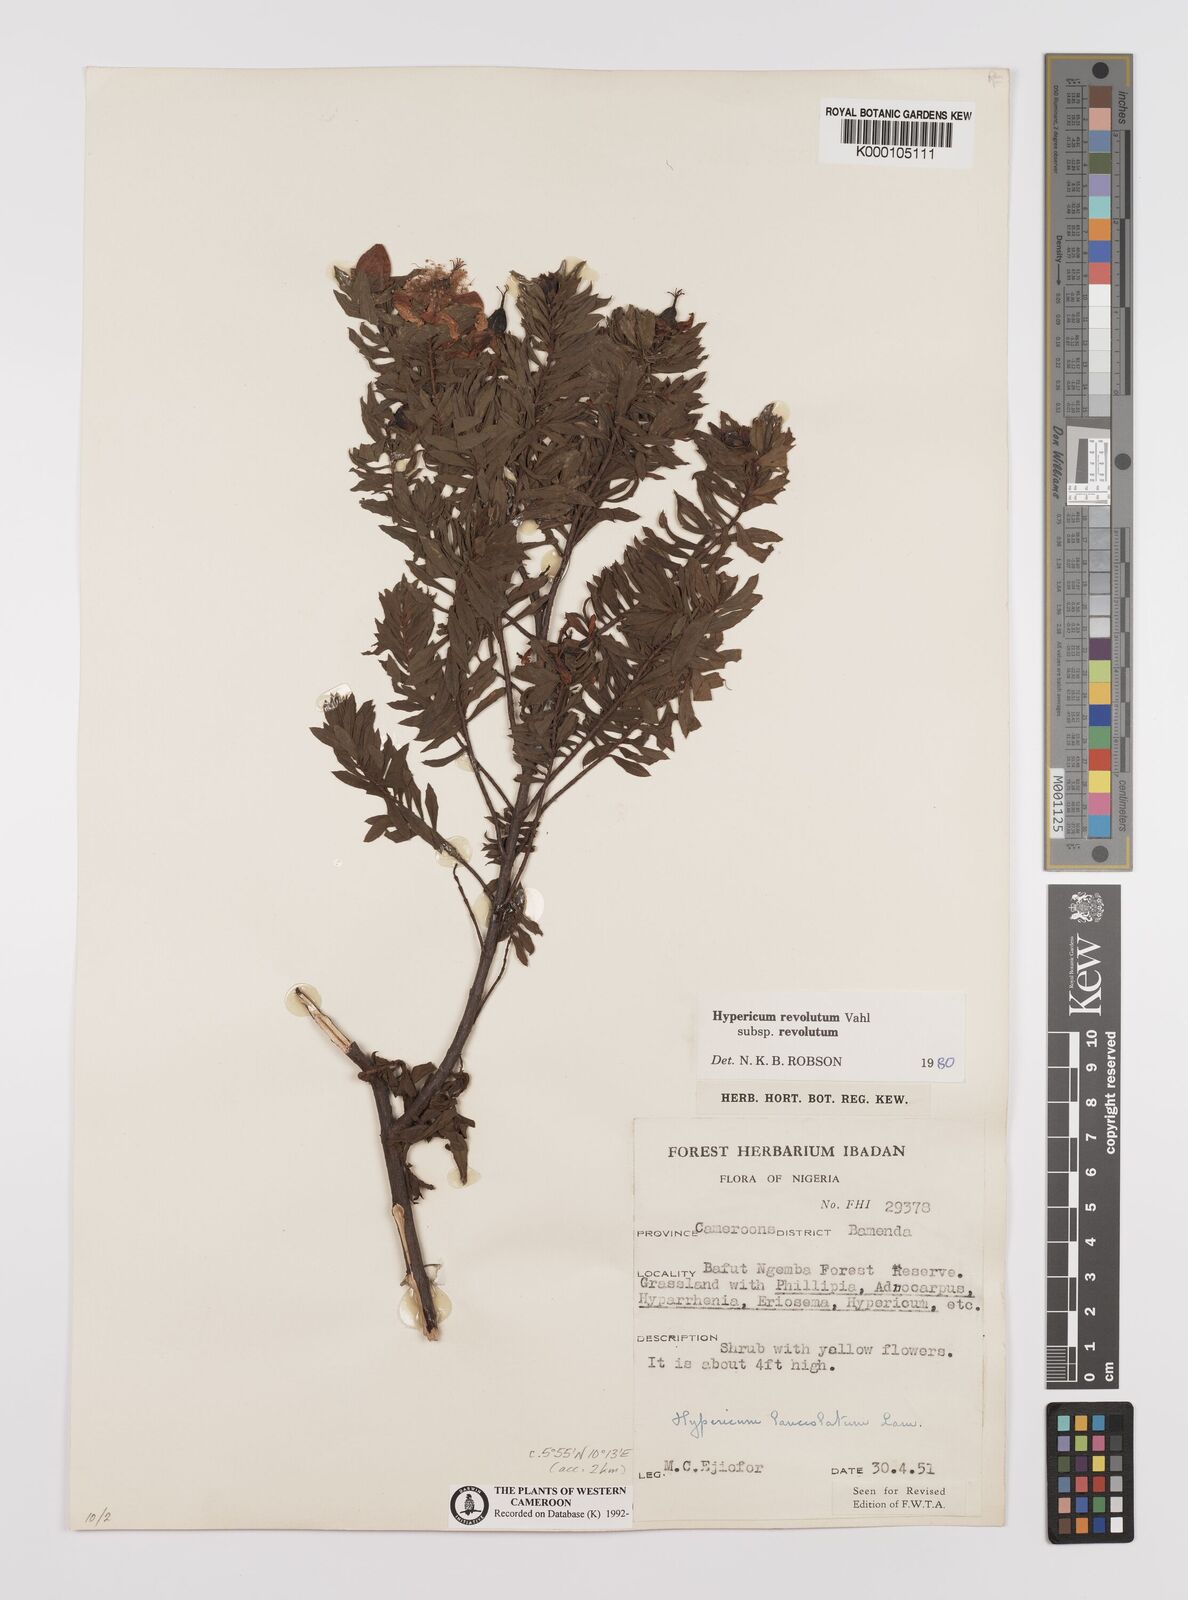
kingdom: Plantae
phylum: Tracheophyta
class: Magnoliopsida
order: Malpighiales
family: Hypericaceae
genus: Hypericum
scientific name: Hypericum revolutum
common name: Curry bush
